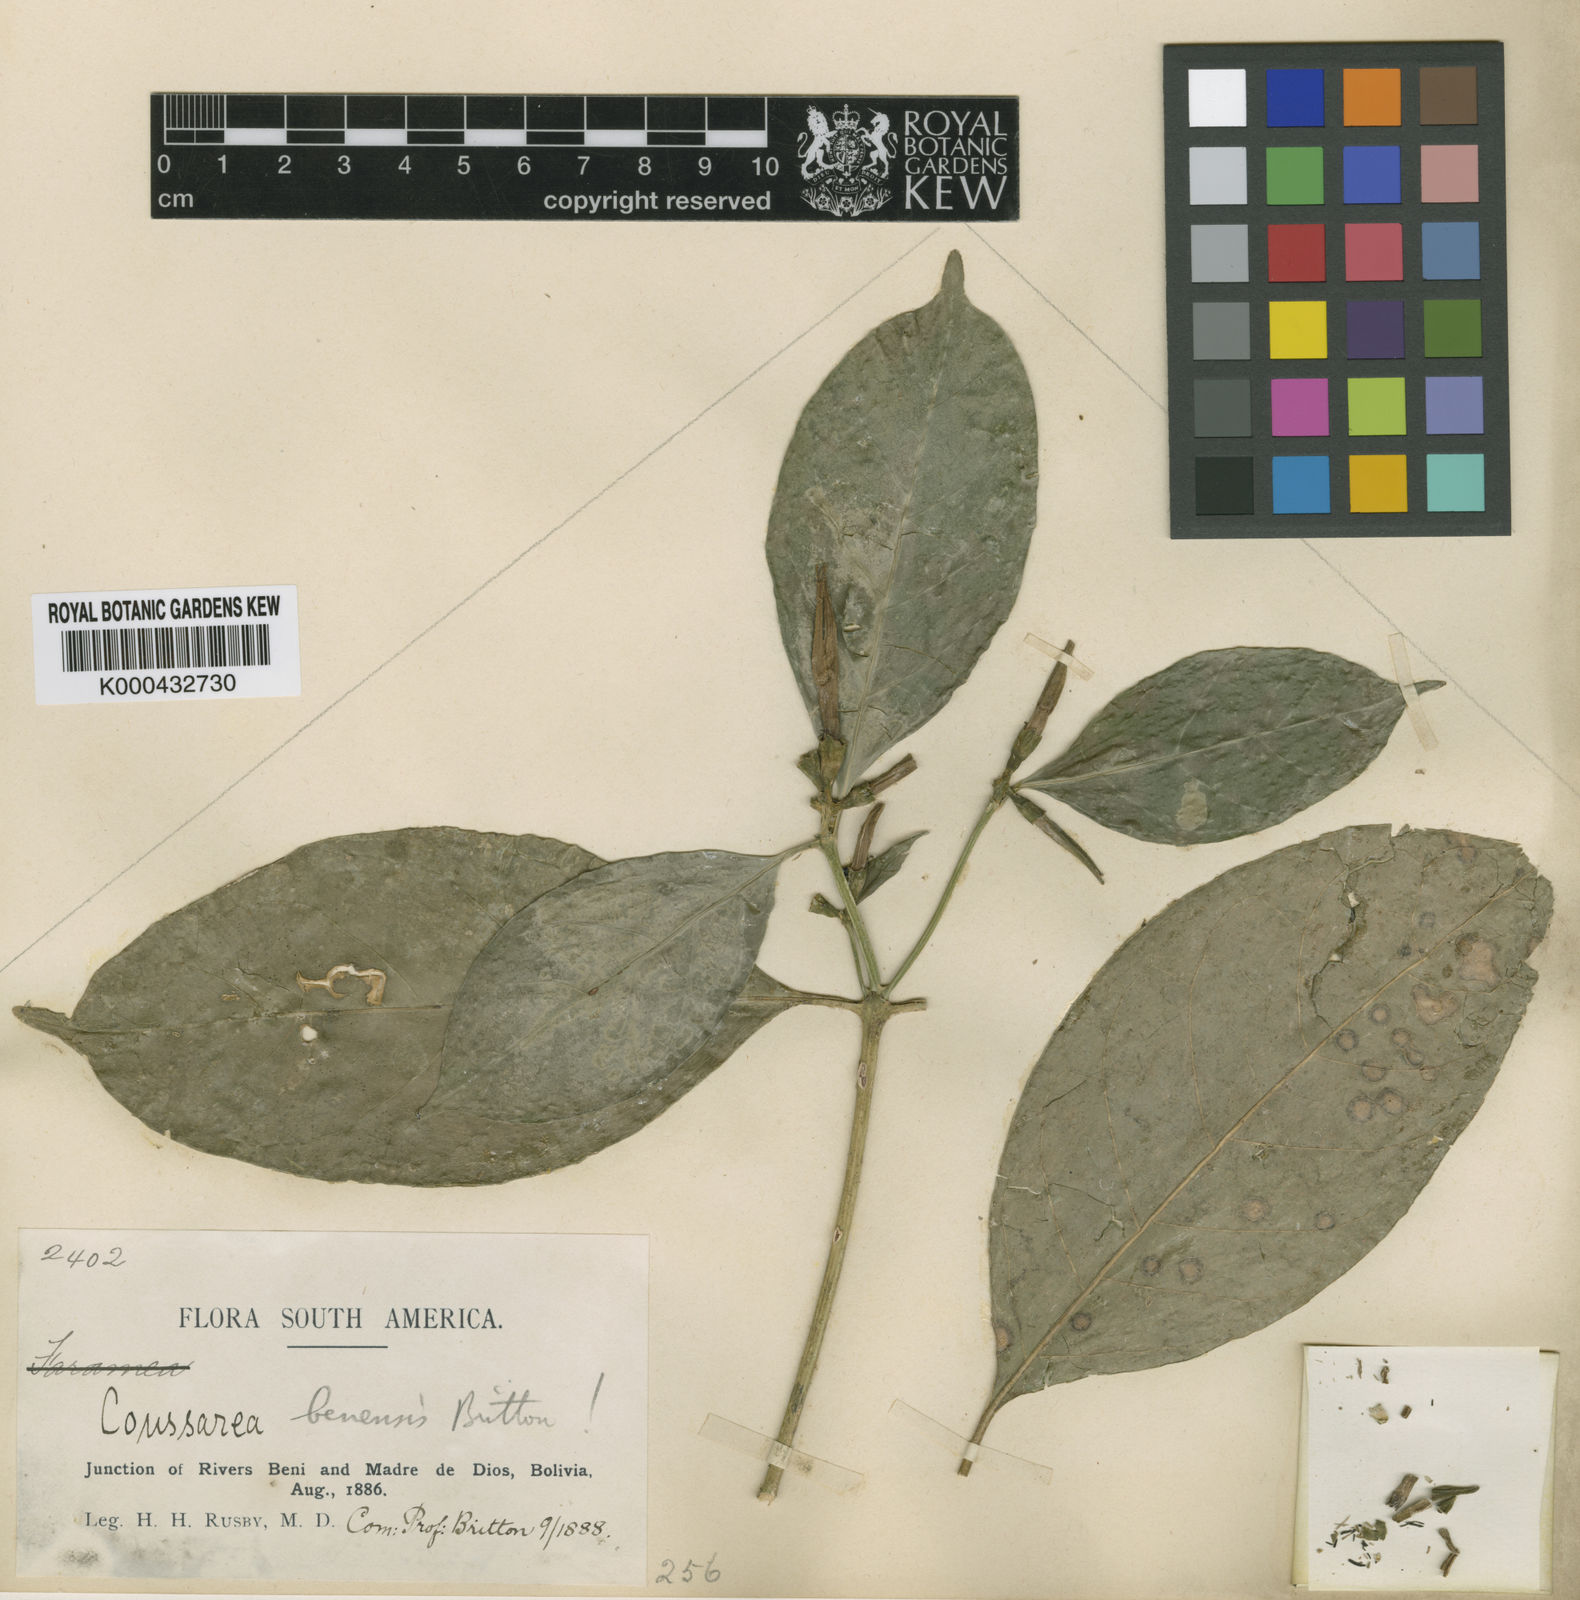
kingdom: Plantae
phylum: Tracheophyta
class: Magnoliopsida
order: Gentianales
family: Rubiaceae
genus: Coussarea
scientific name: Coussarea longiflora
